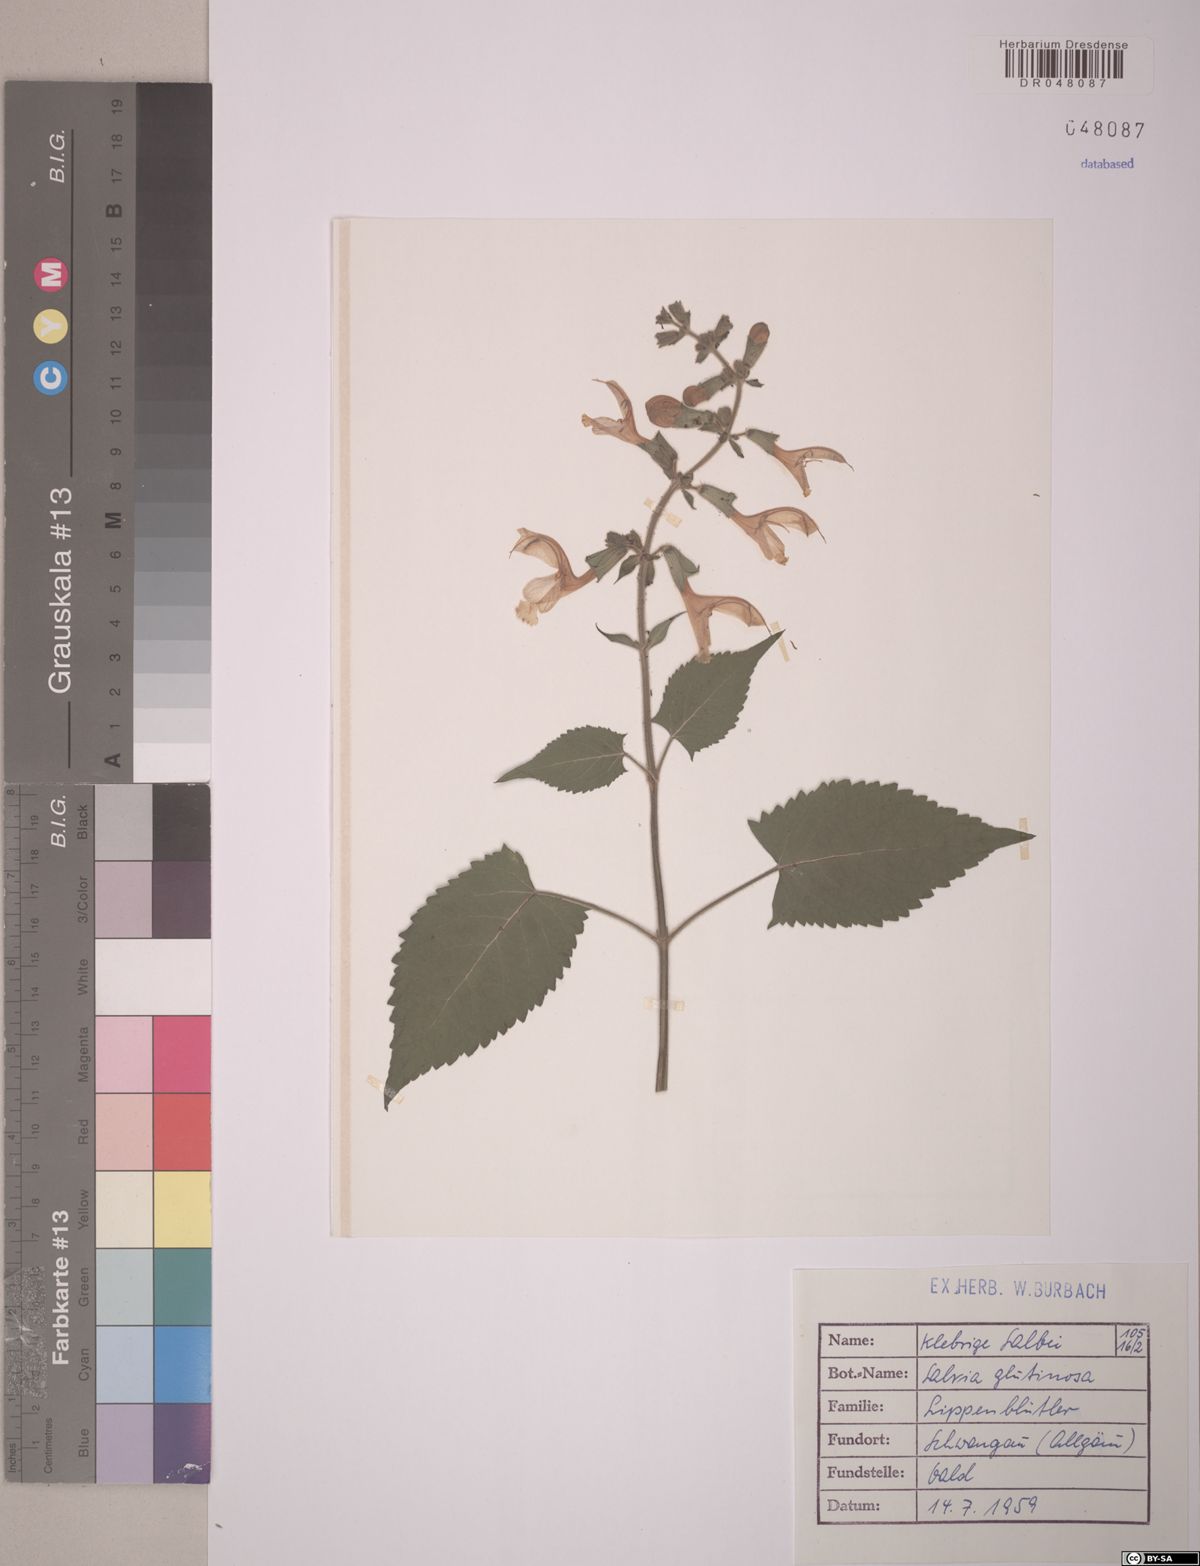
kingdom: Plantae
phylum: Tracheophyta
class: Magnoliopsida
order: Lamiales
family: Lamiaceae
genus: Salvia
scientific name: Salvia glutinosa
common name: Sticky clary
